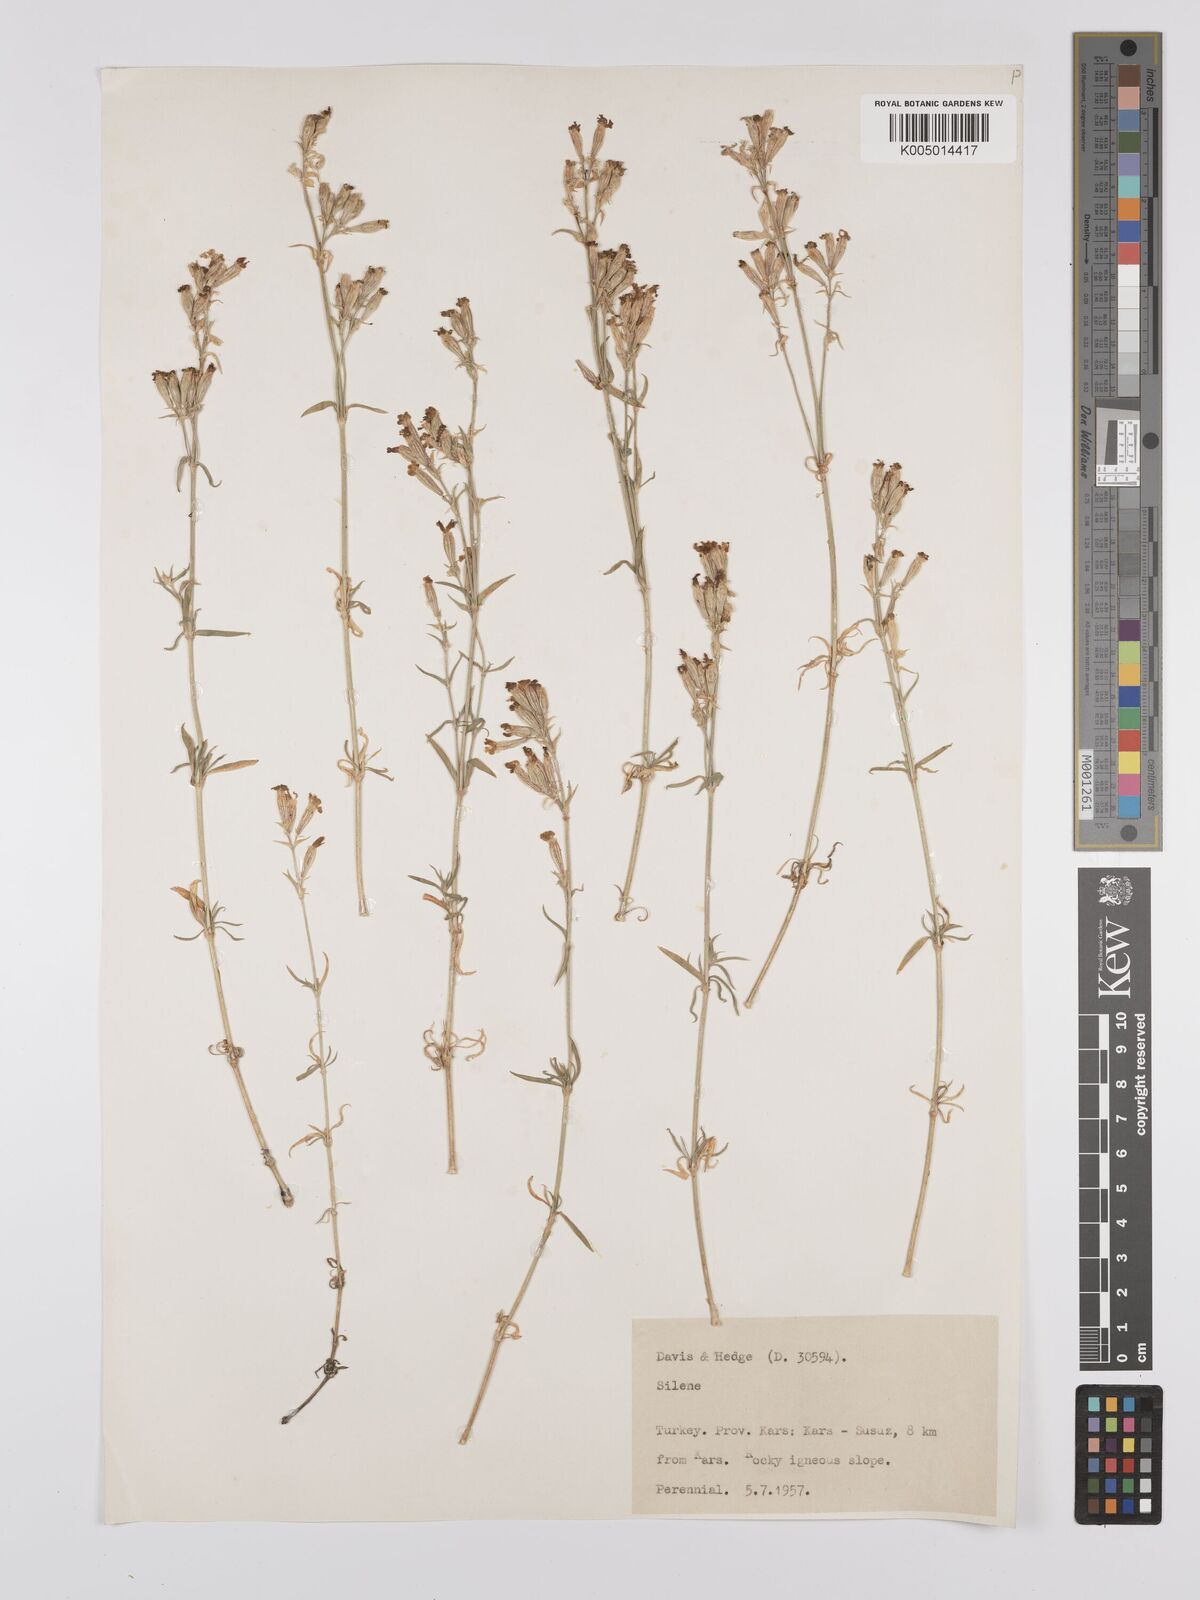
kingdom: Plantae
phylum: Tracheophyta
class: Magnoliopsida
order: Caryophyllales
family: Caryophyllaceae
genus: Silene
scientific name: Silene
